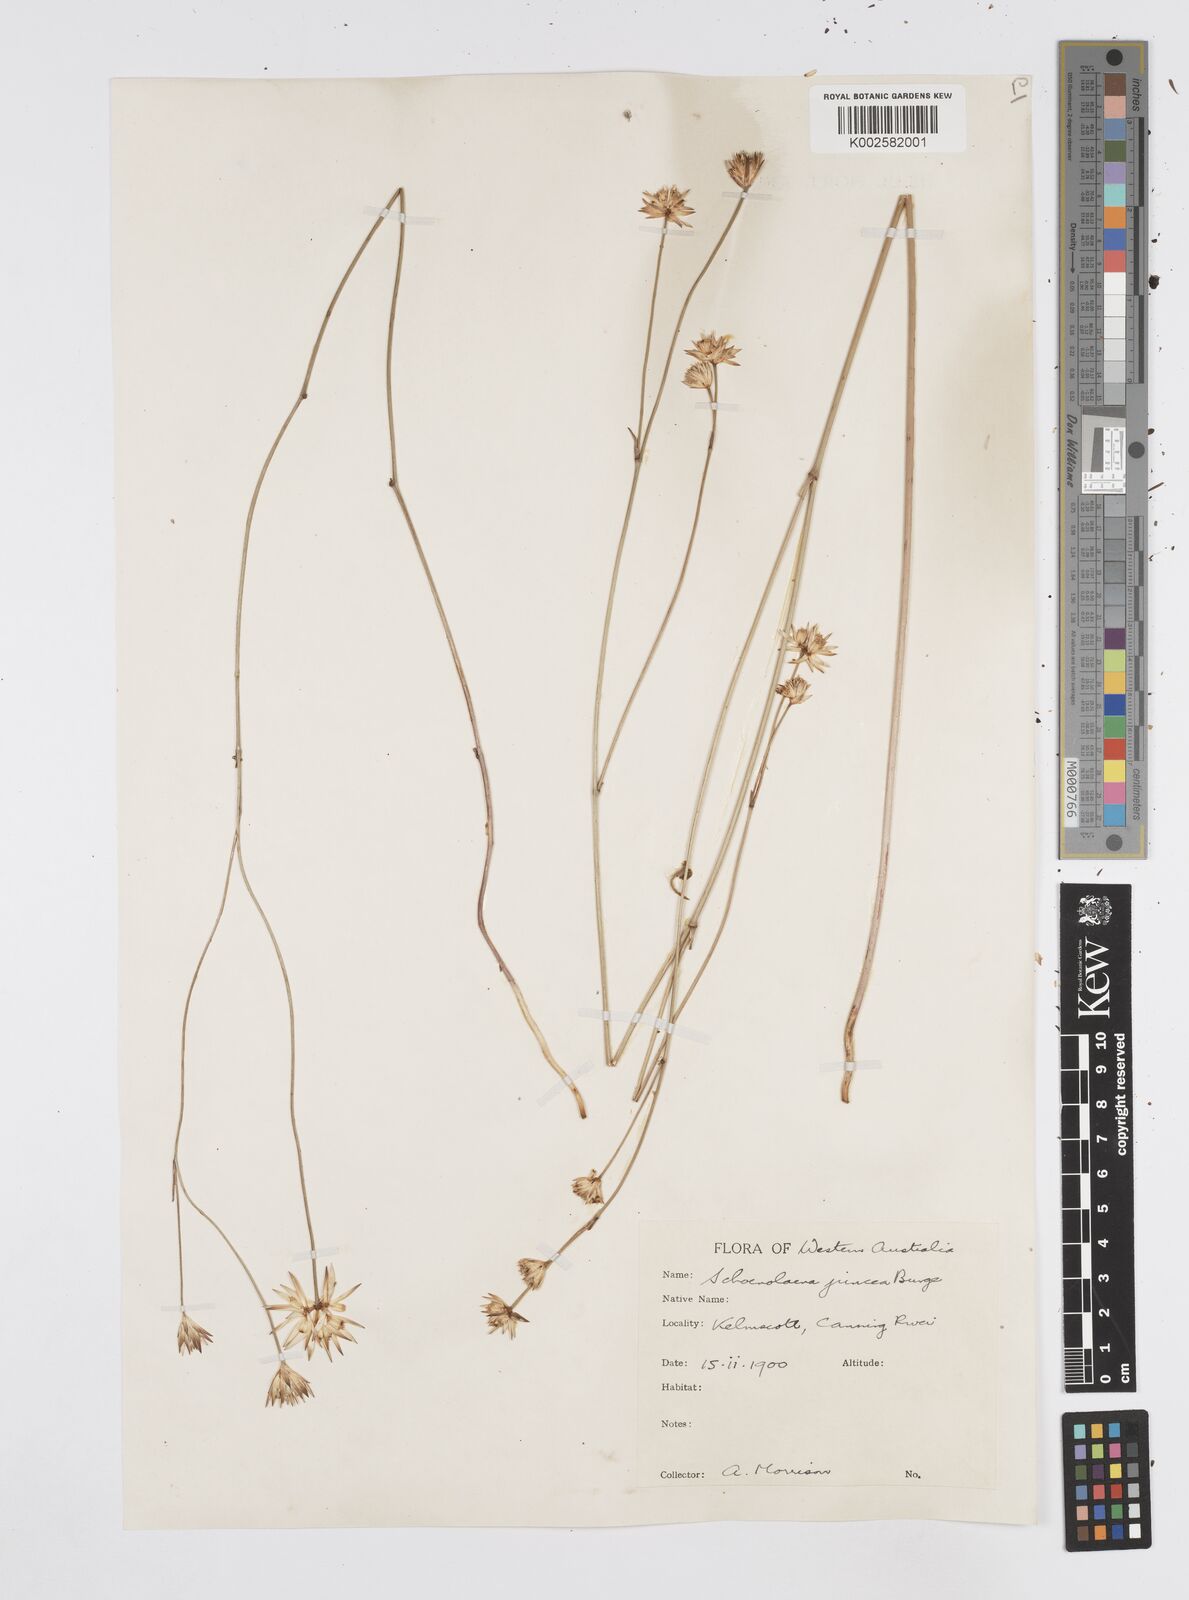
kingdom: Plantae
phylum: Tracheophyta
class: Magnoliopsida
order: Apiales
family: Apiaceae
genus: Schoenolaena
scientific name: Schoenolaena juncea
